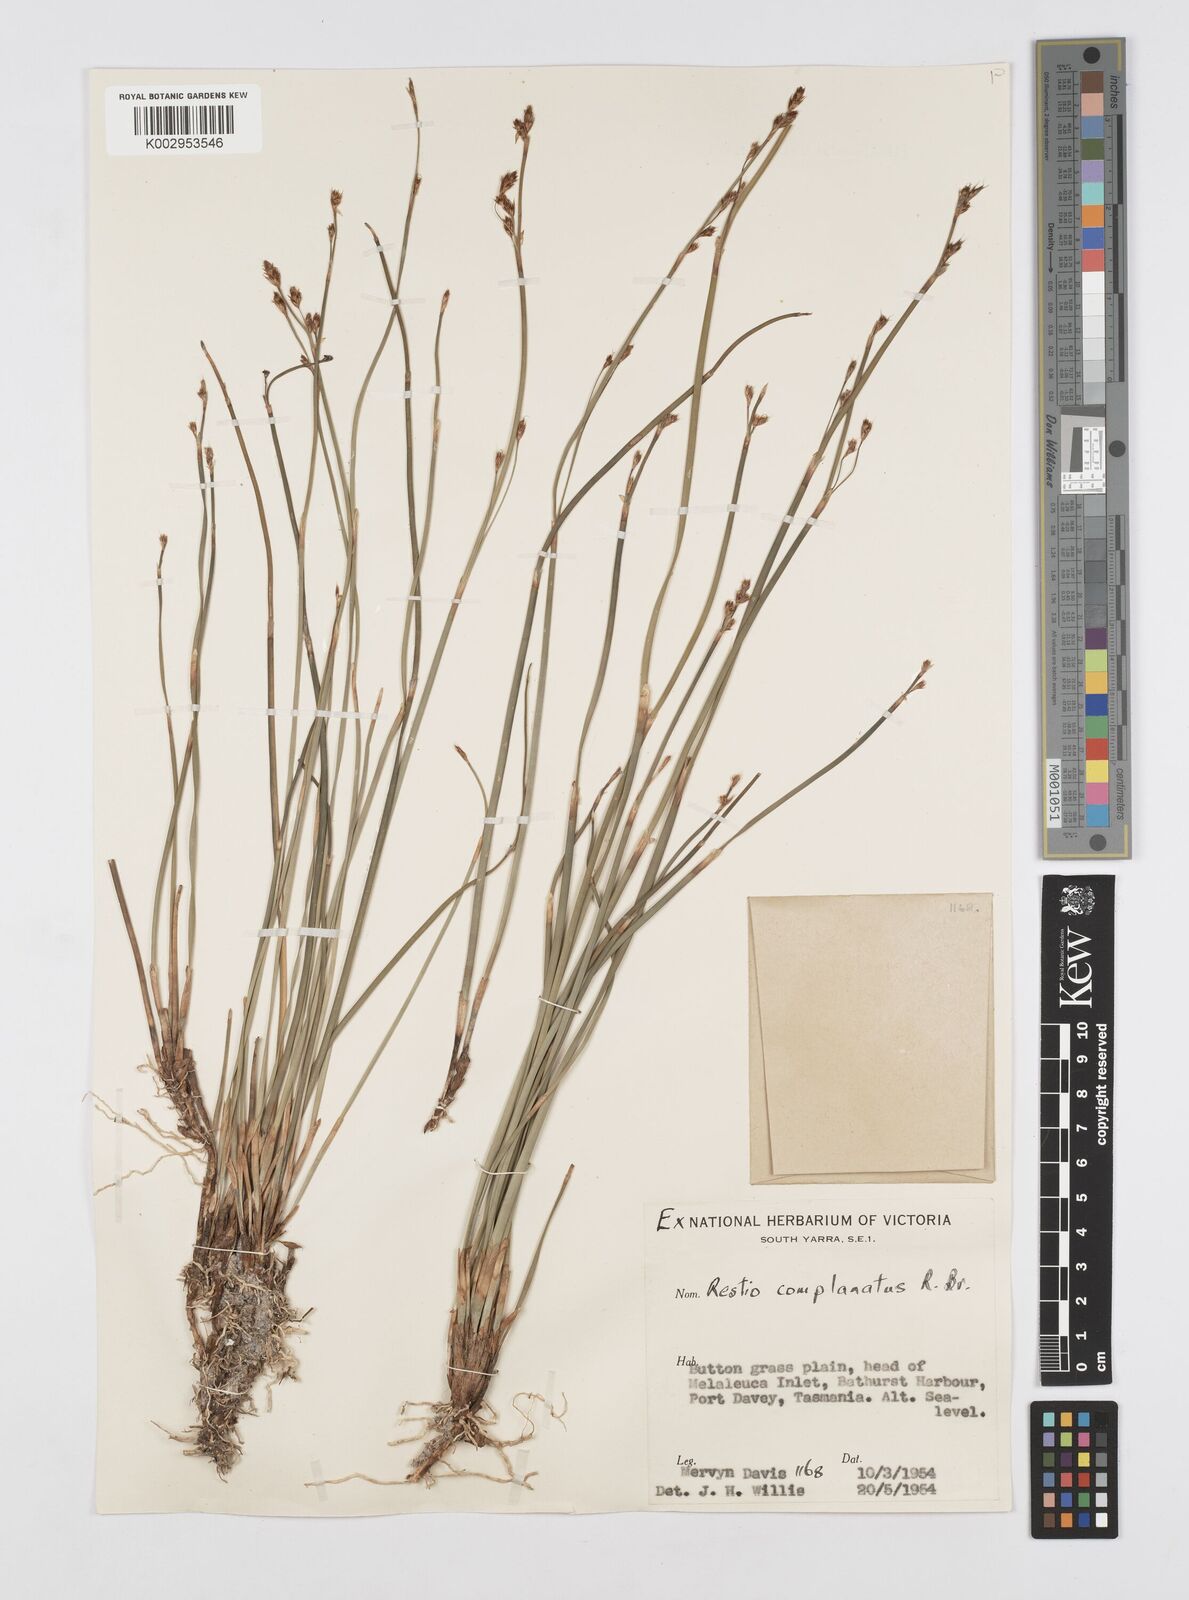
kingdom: Plantae
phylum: Tracheophyta
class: Liliopsida
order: Poales
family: Restionaceae
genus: Eurychorda
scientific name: Eurychorda complanata
